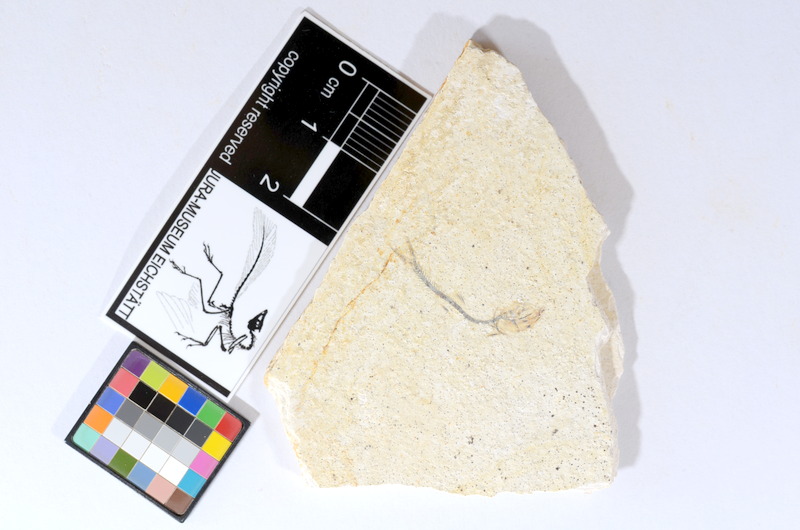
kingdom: Animalia
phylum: Chordata
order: Salmoniformes
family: Orthogonikleithridae
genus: Orthogonikleithrus
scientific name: Orthogonikleithrus hoelli
